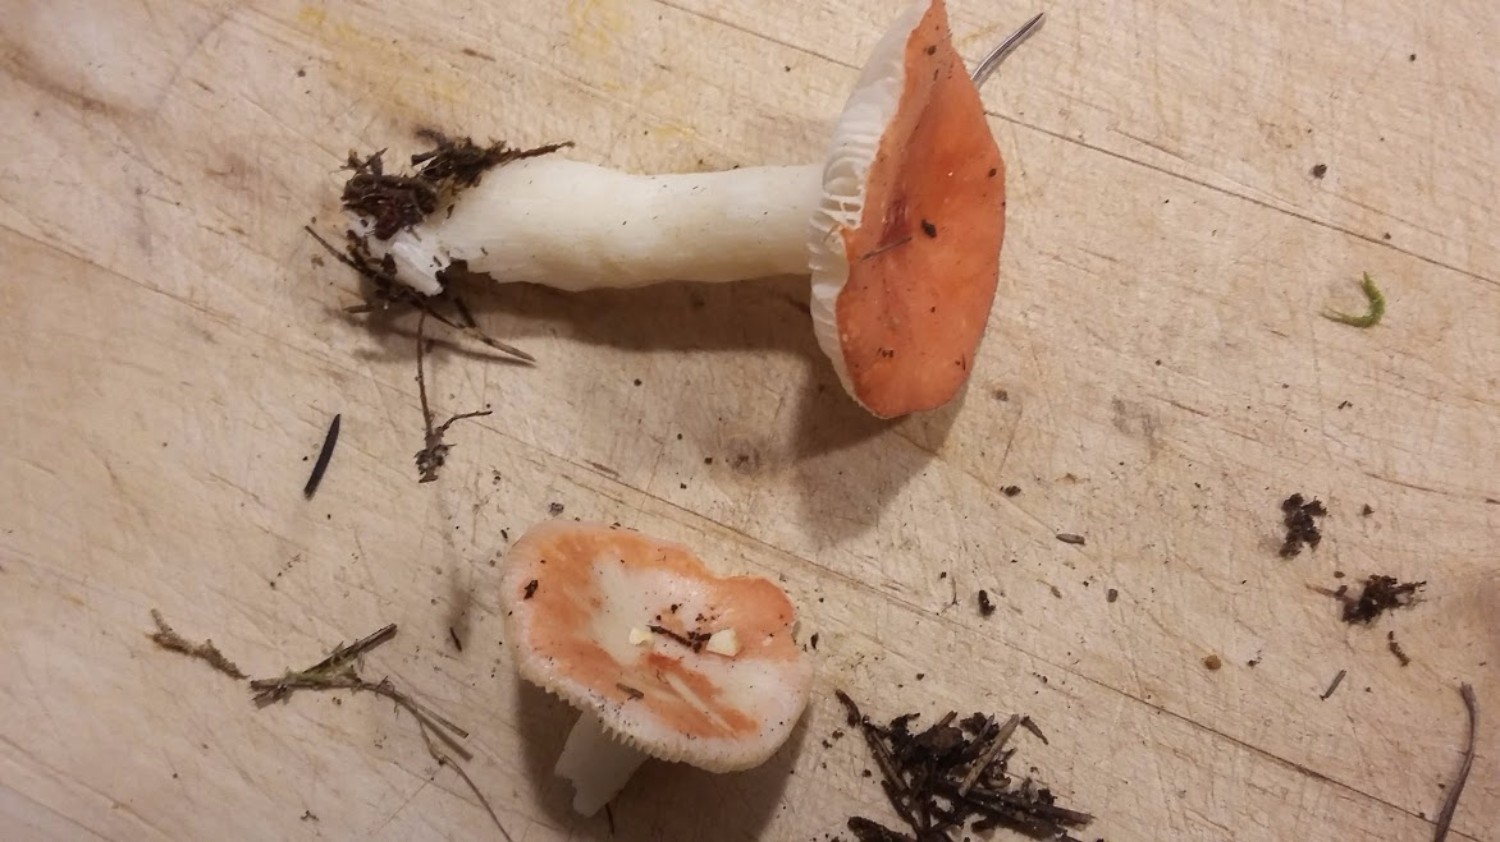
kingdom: Fungi
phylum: Basidiomycota
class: Agaricomycetes
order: Russulales
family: Russulaceae
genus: Russula
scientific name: Russula
